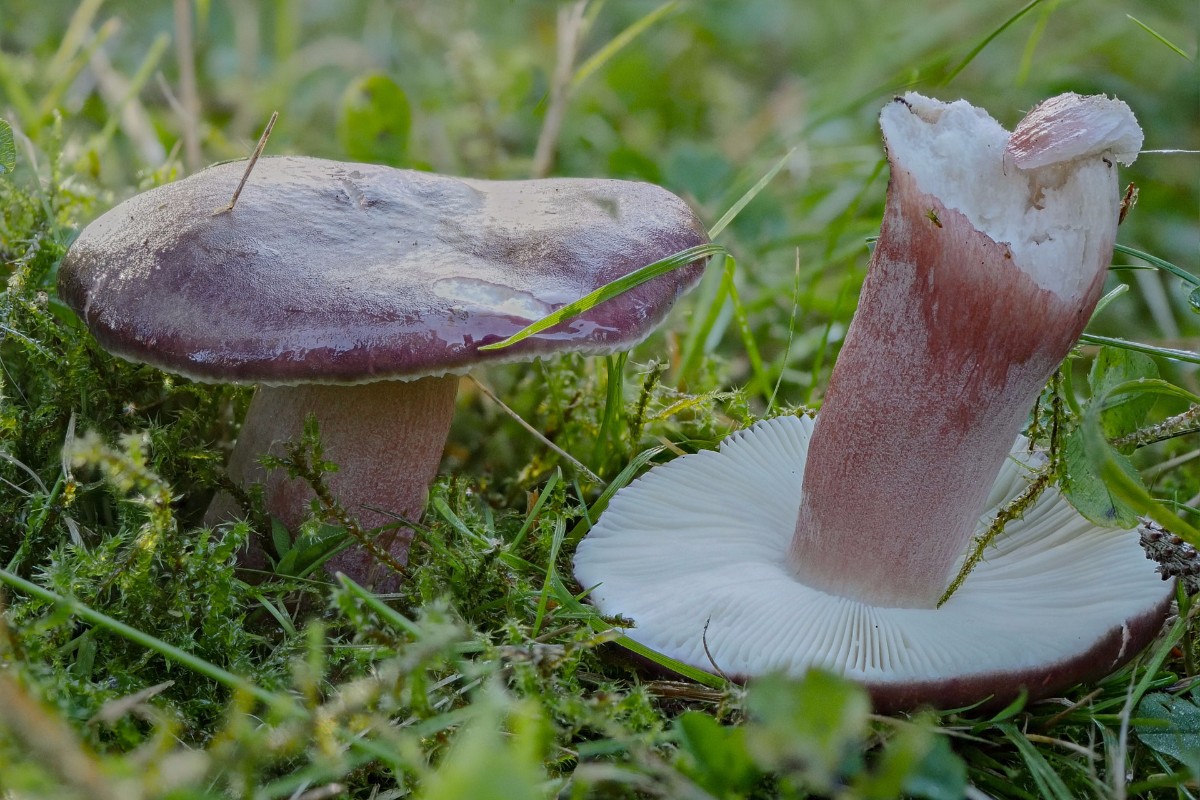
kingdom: Fungi
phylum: Basidiomycota
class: Agaricomycetes
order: Russulales
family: Russulaceae
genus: Russula
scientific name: Russula queletii
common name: Quélets skørhat
